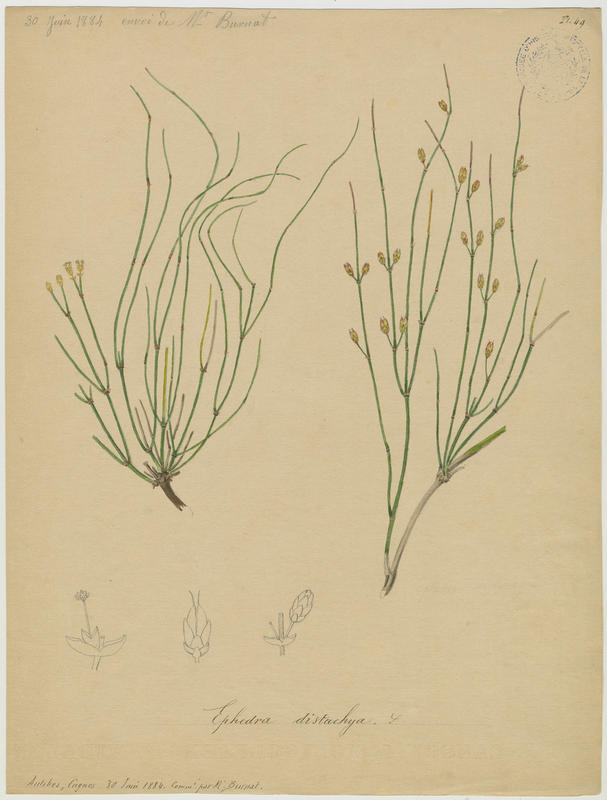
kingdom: Plantae
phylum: Tracheophyta
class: Gnetopsida
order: Ephedrales
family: Ephedraceae
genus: Ephedra
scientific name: Ephedra distachya
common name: Sea grape
